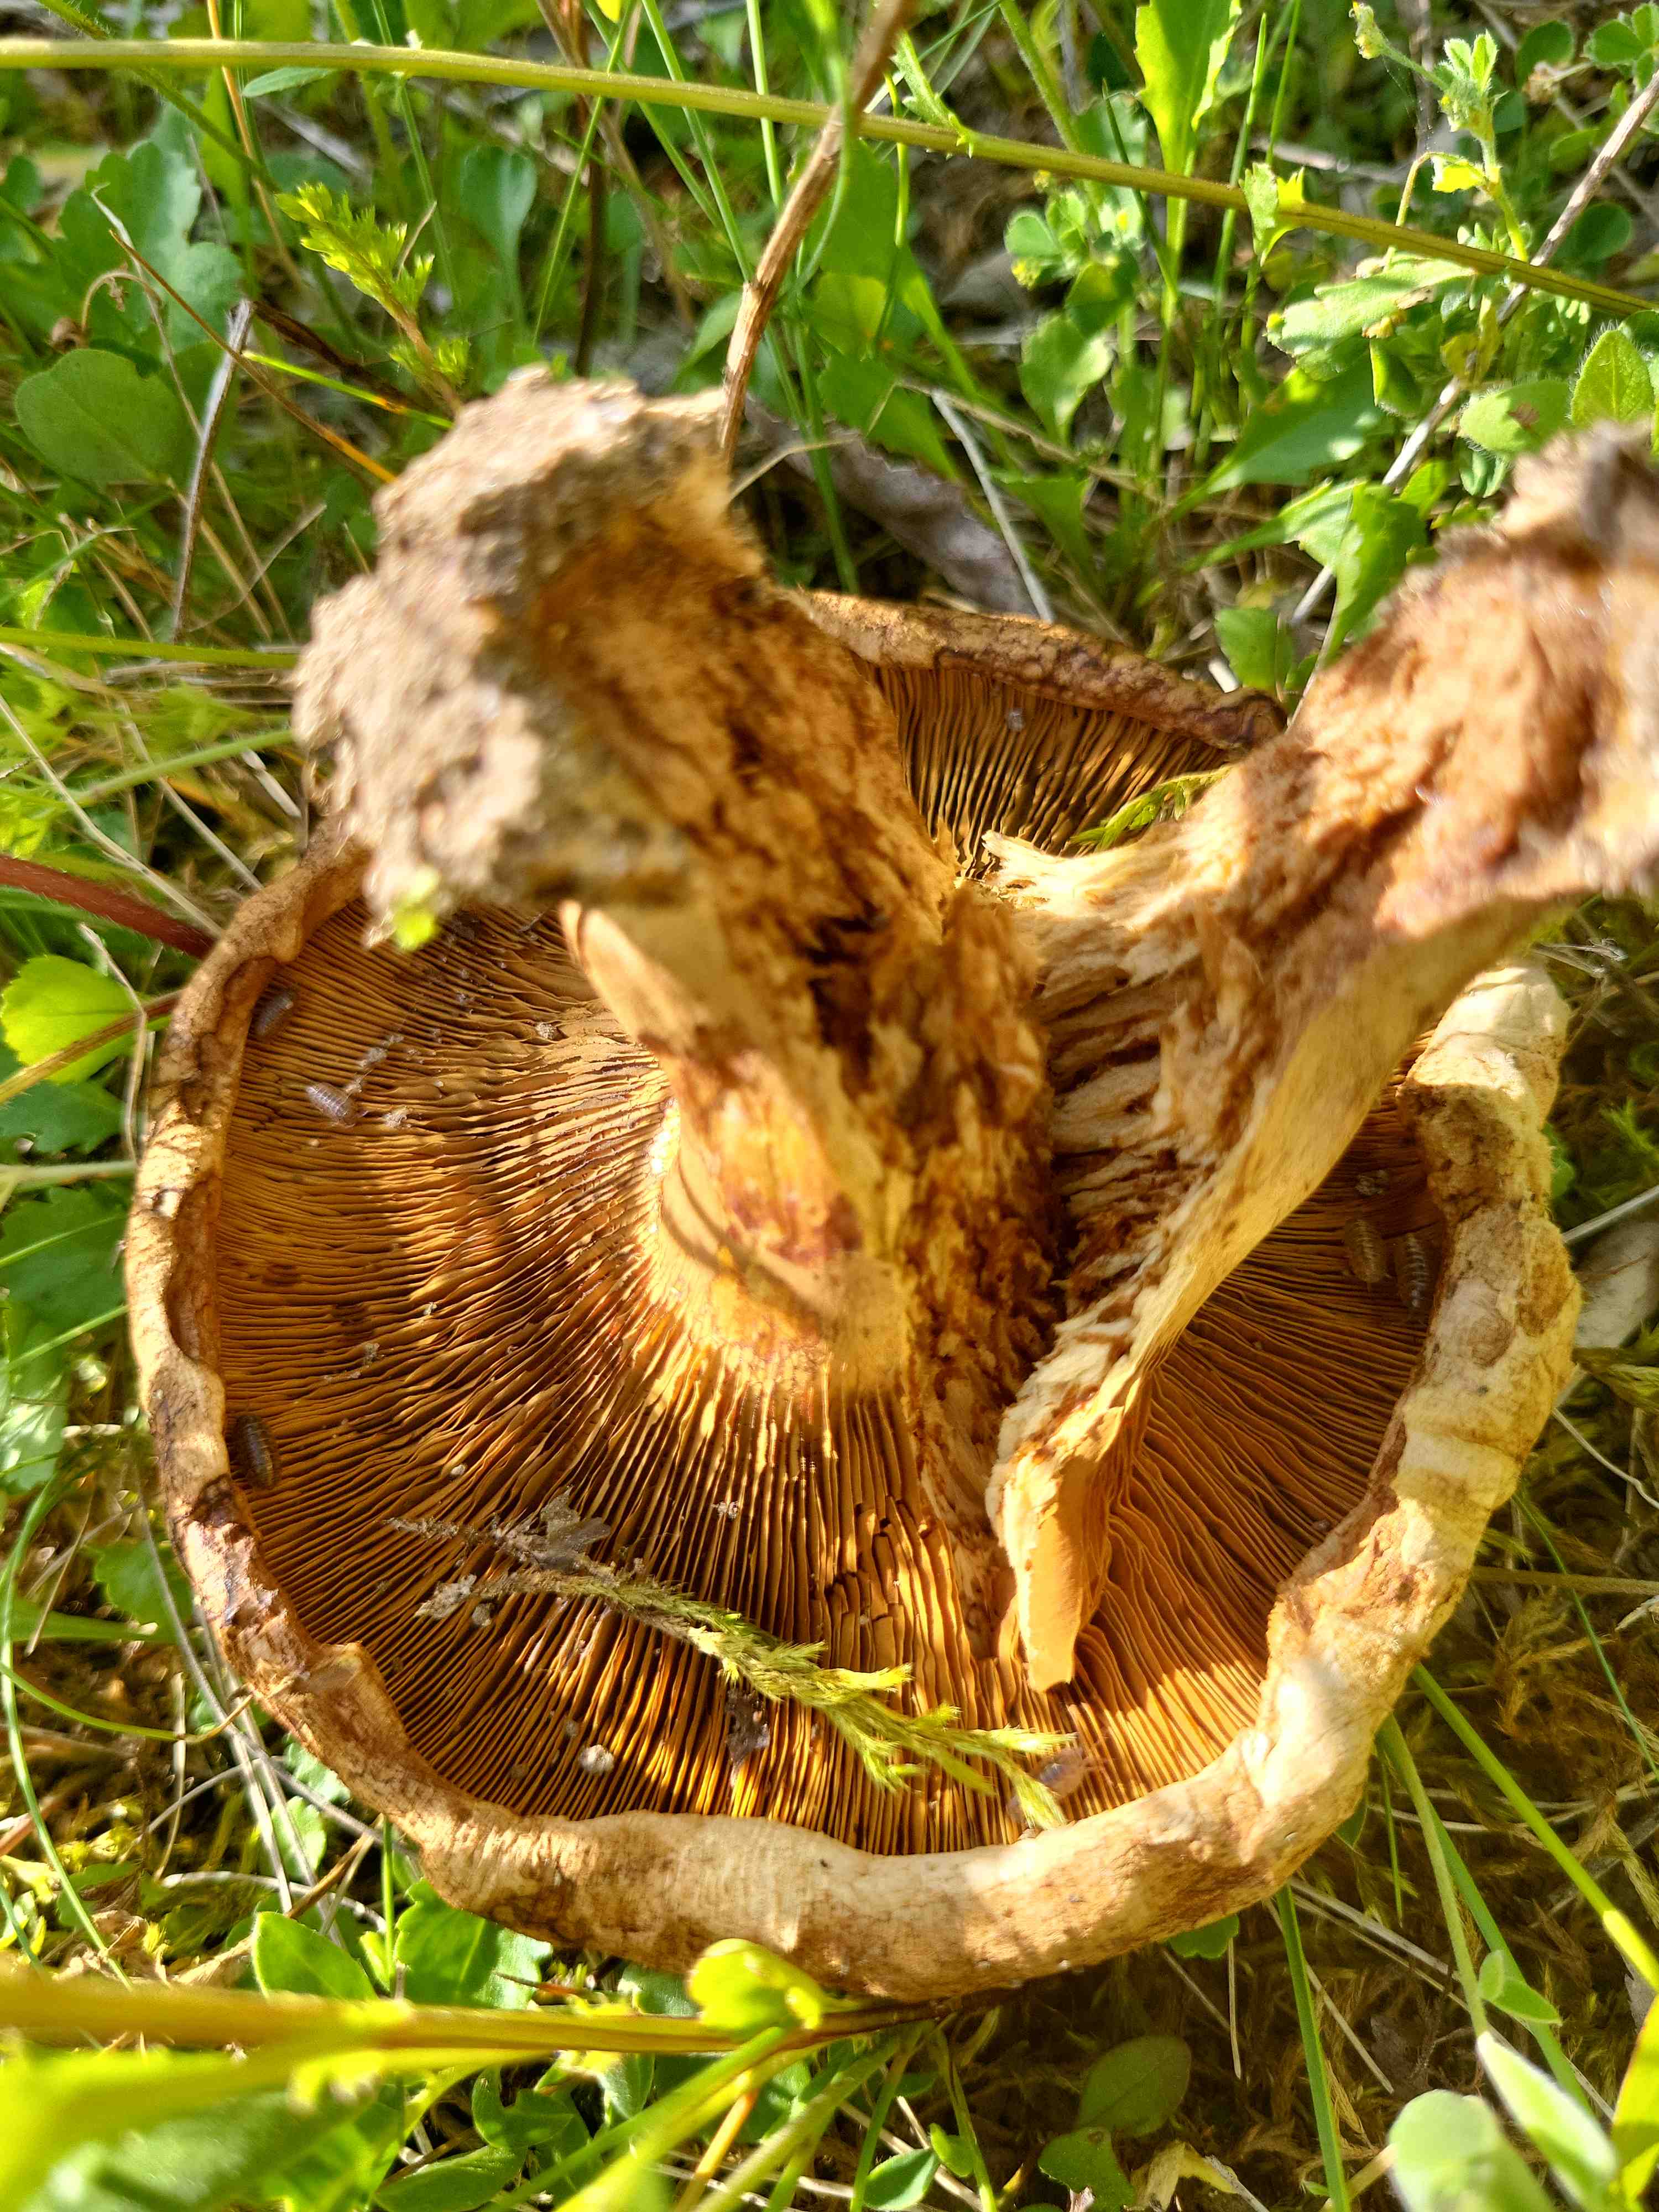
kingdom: Fungi
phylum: Basidiomycota
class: Agaricomycetes
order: Boletales
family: Paxillaceae
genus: Paxillus
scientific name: Paxillus
